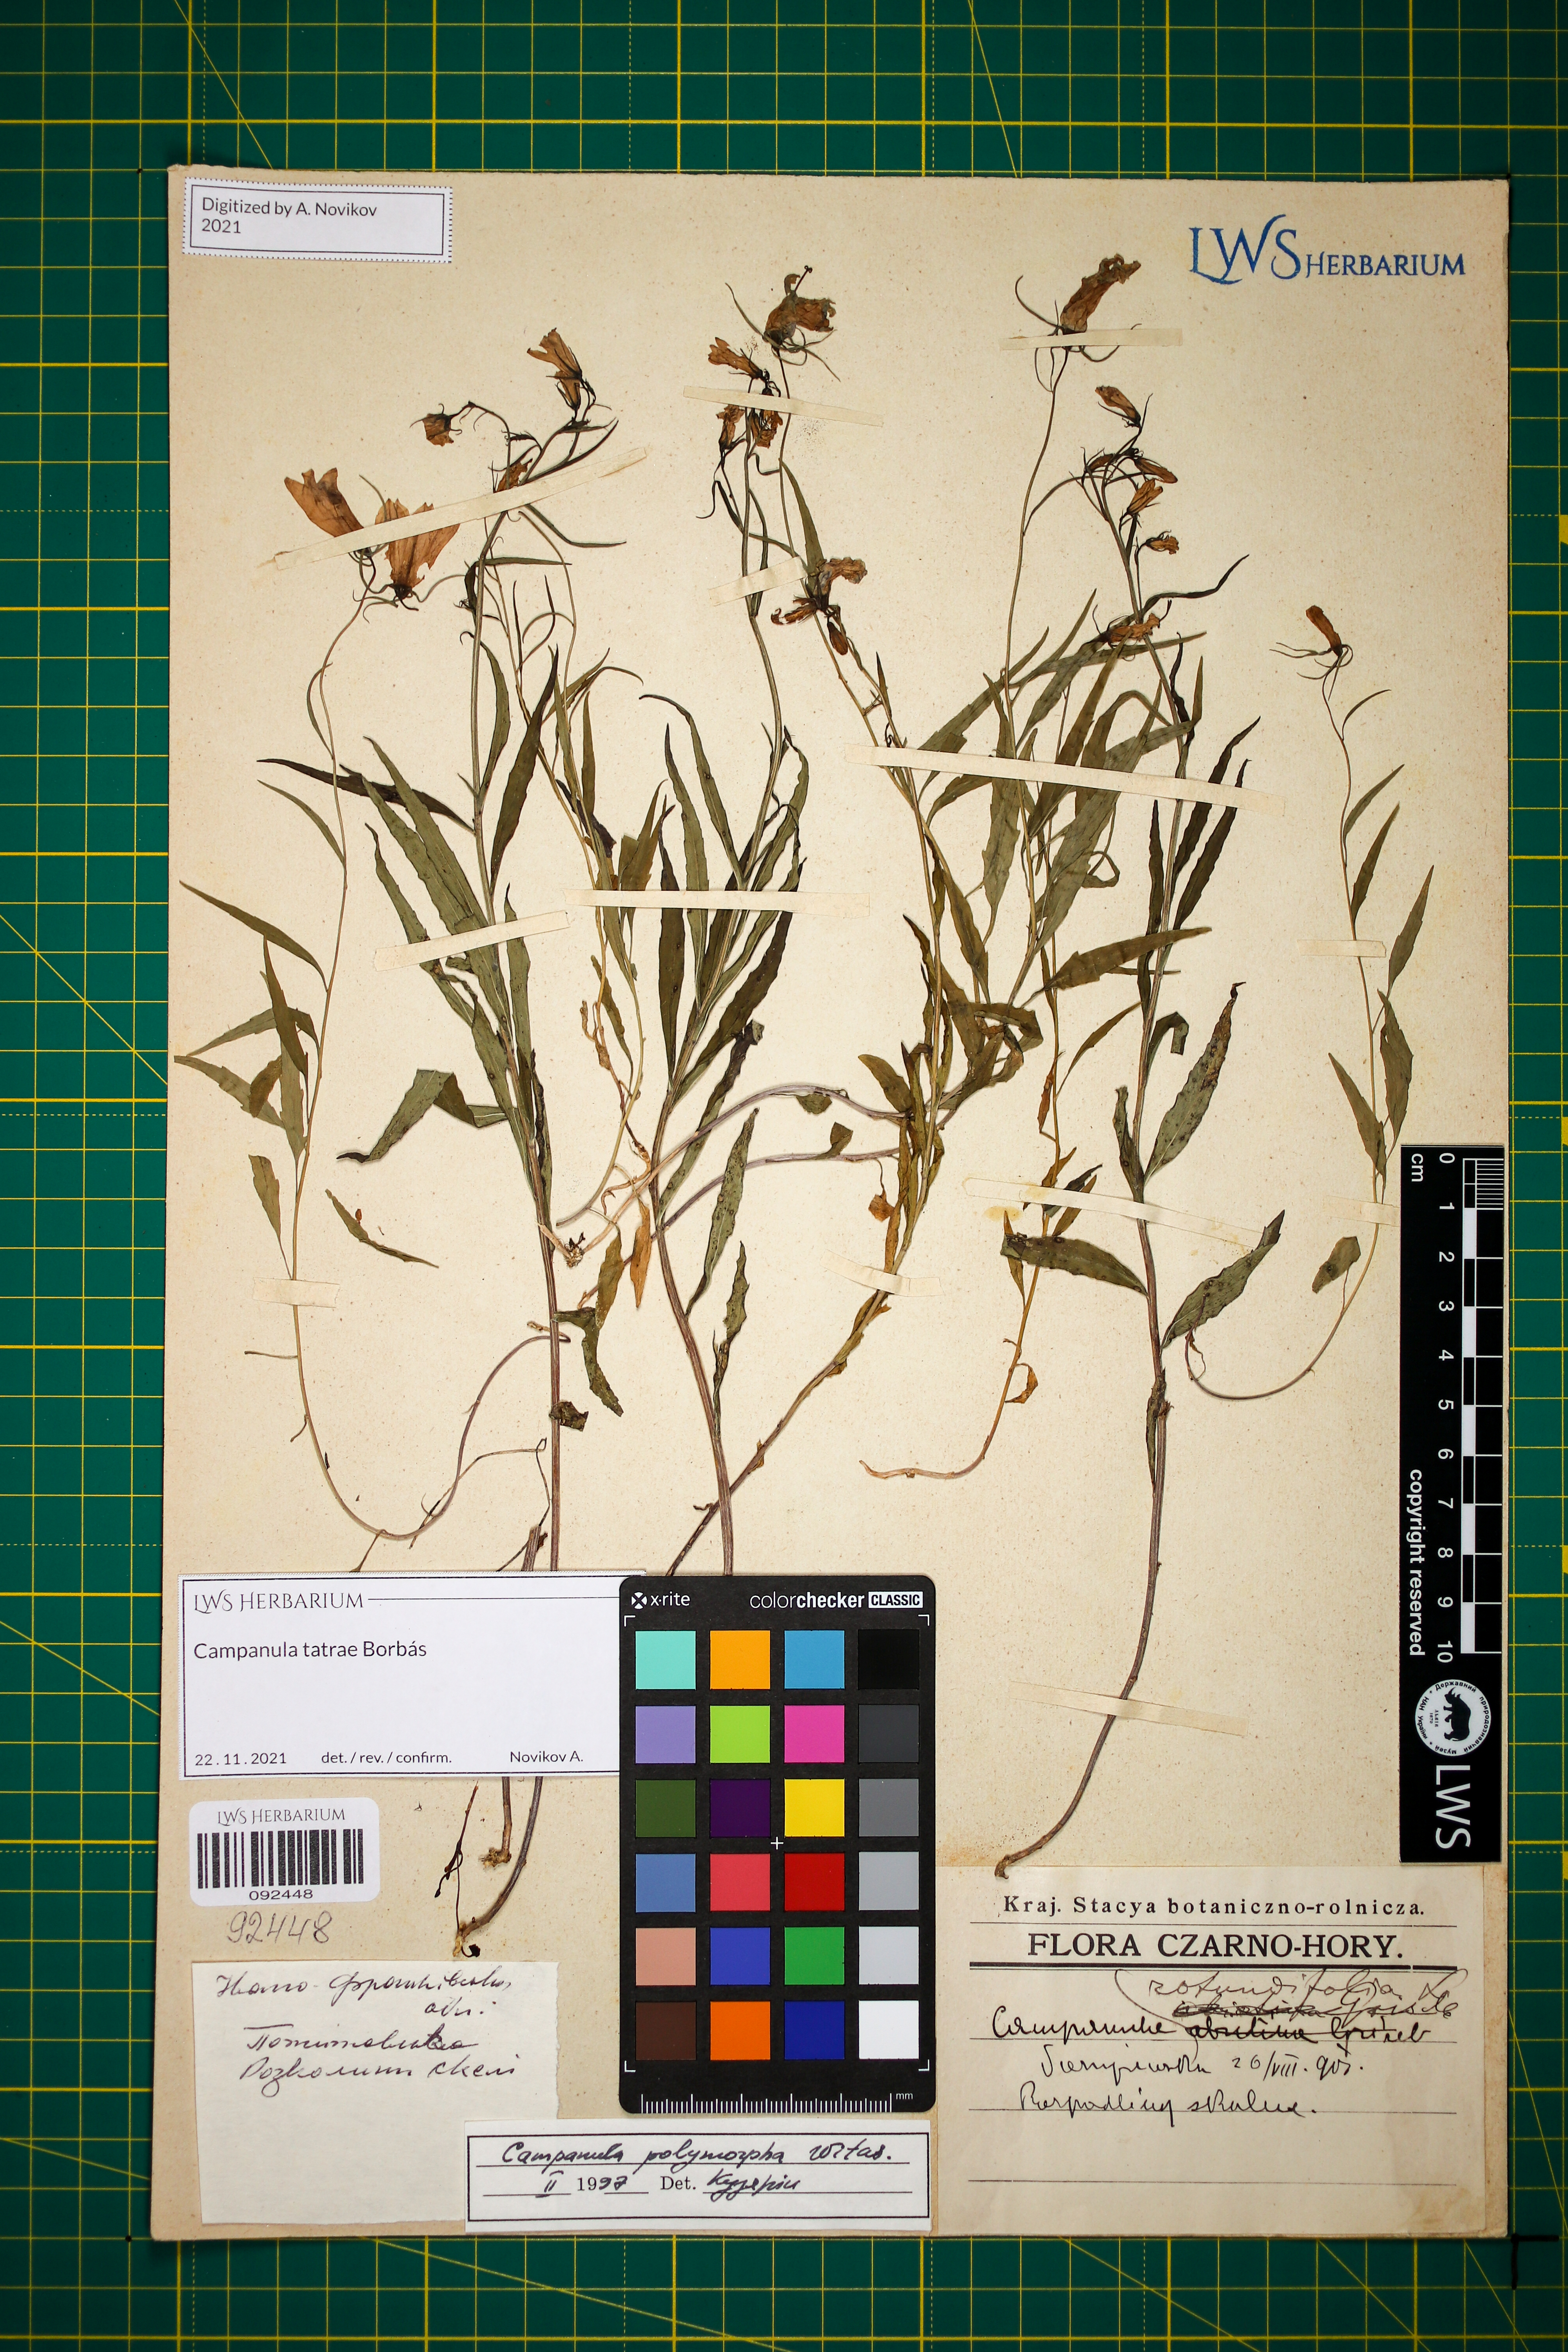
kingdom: Plantae
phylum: Tracheophyta
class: Magnoliopsida
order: Asterales
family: Campanulaceae
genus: Campanula
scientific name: Campanula tatrae
